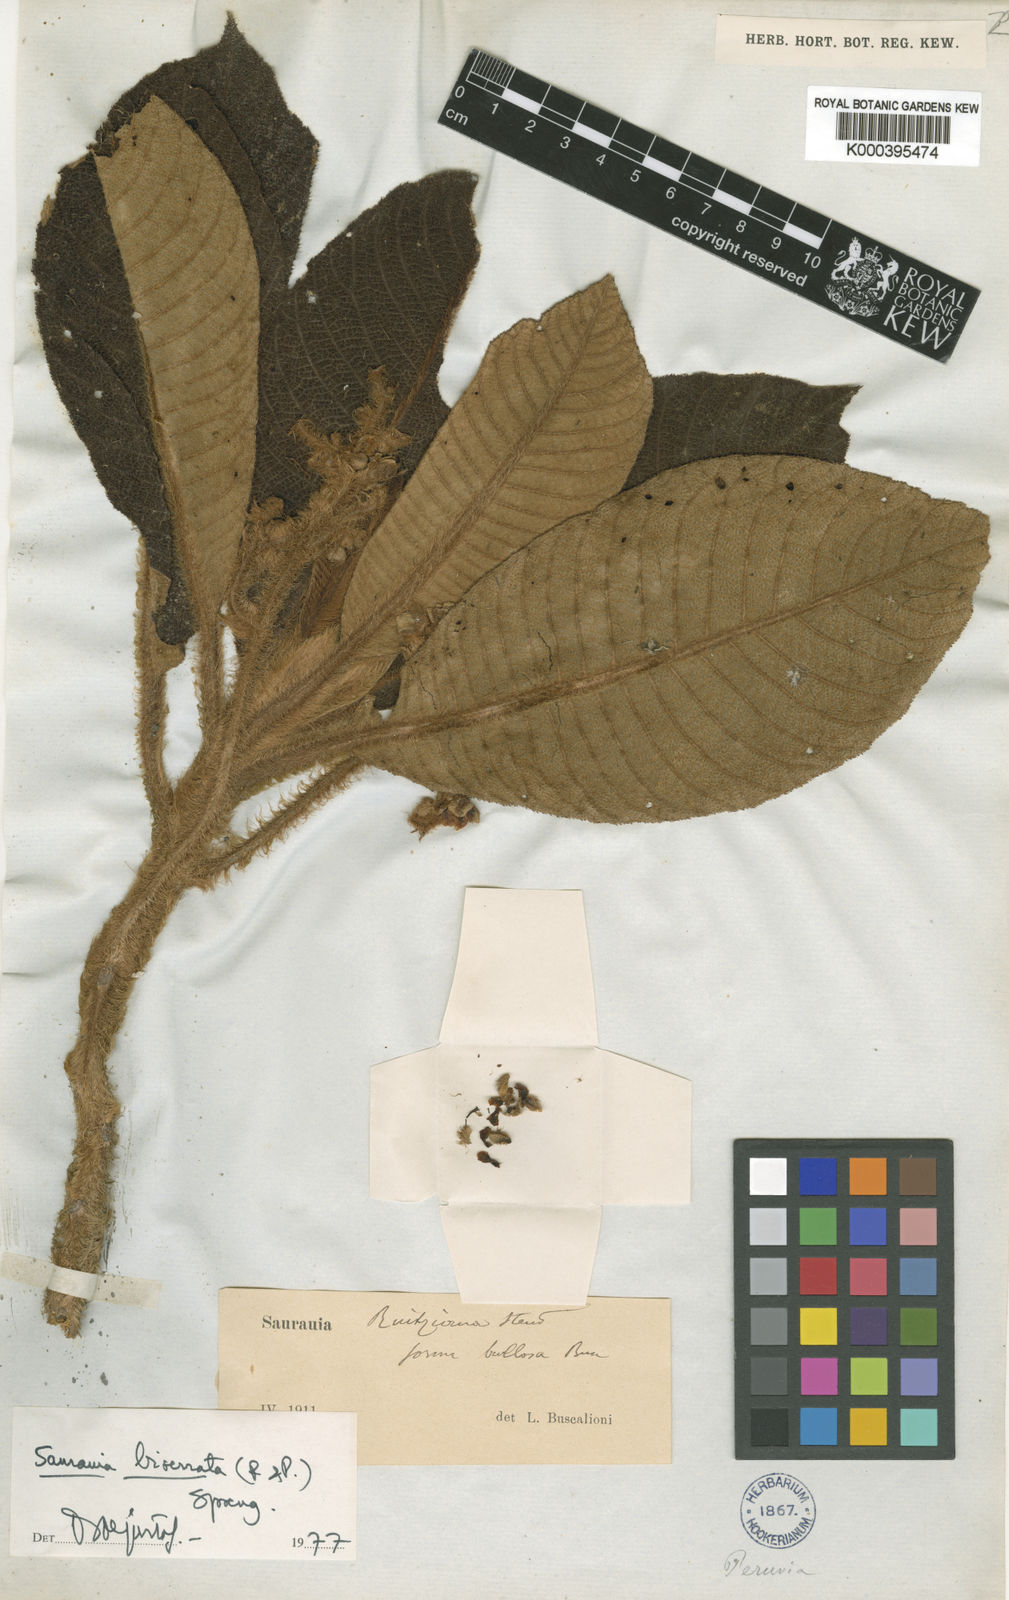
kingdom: Plantae
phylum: Tracheophyta
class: Magnoliopsida
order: Ericales
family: Actinidiaceae
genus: Saurauia
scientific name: Saurauia biserrata
